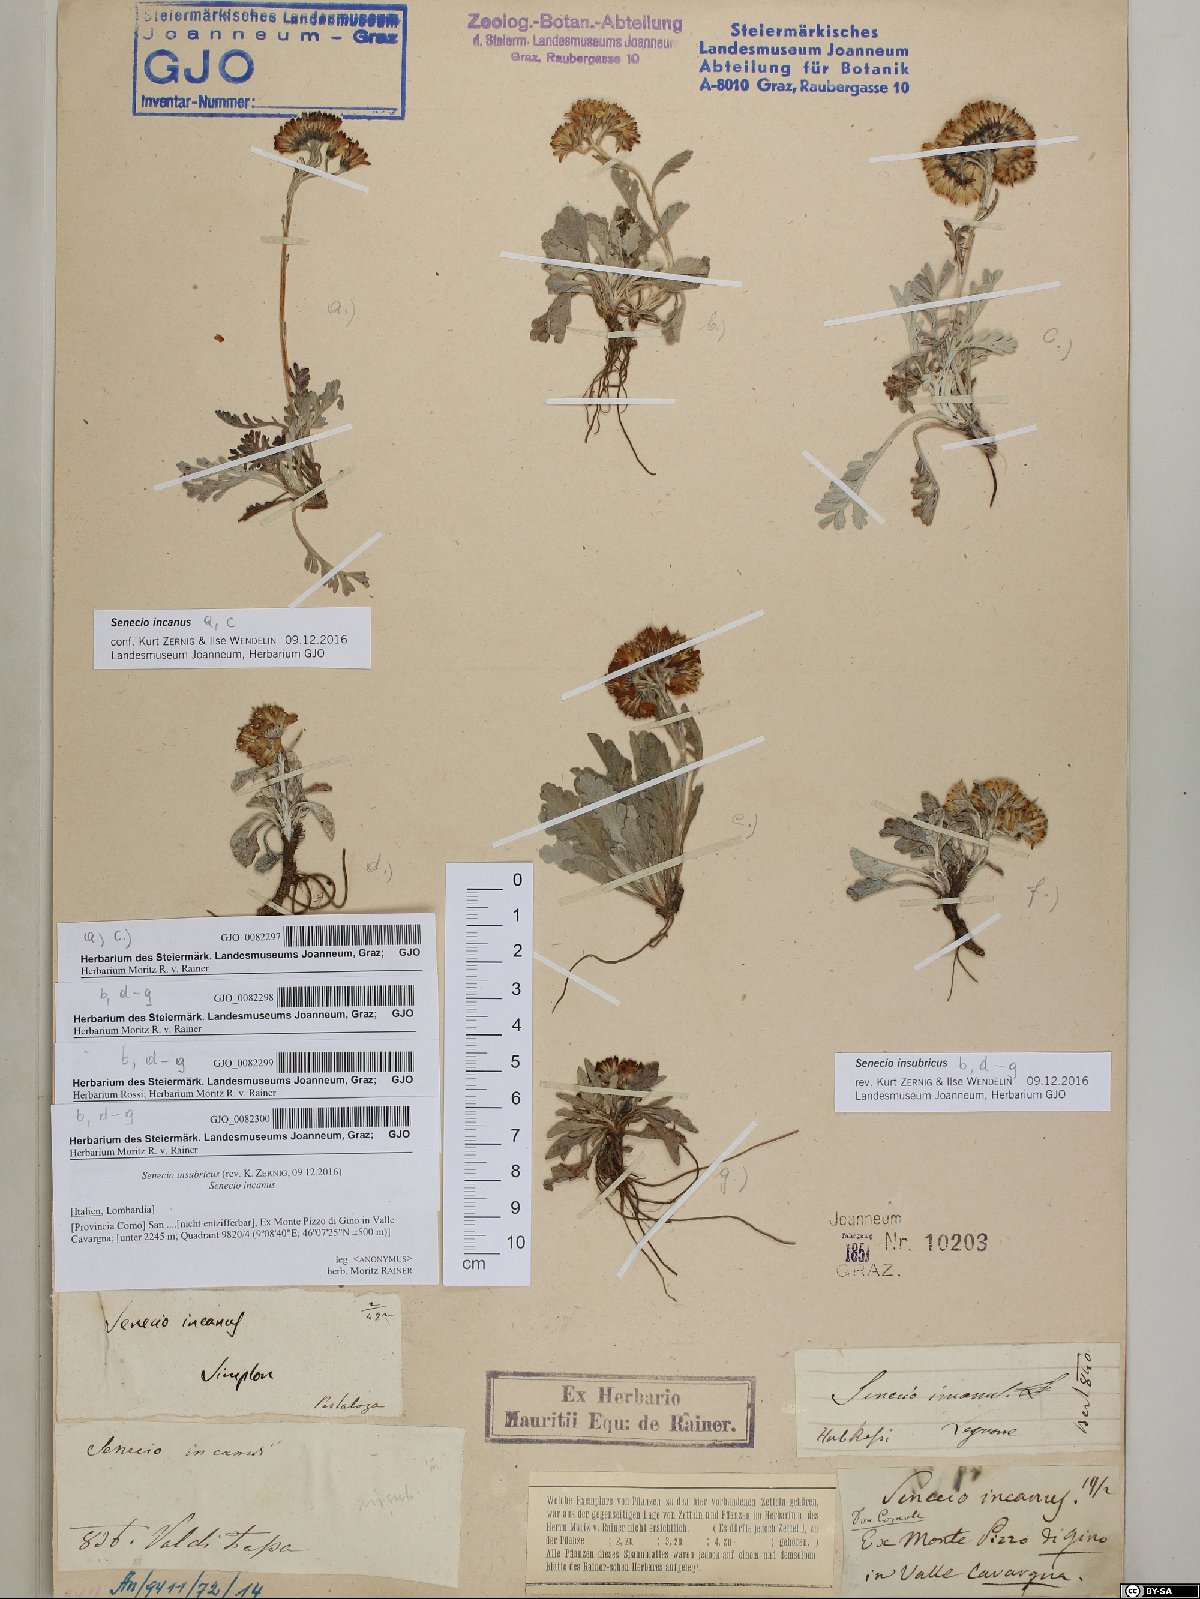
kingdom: Plantae
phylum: Tracheophyta
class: Magnoliopsida
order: Asterales
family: Asteraceae
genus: Jacobaea
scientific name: Jacobaea incana
